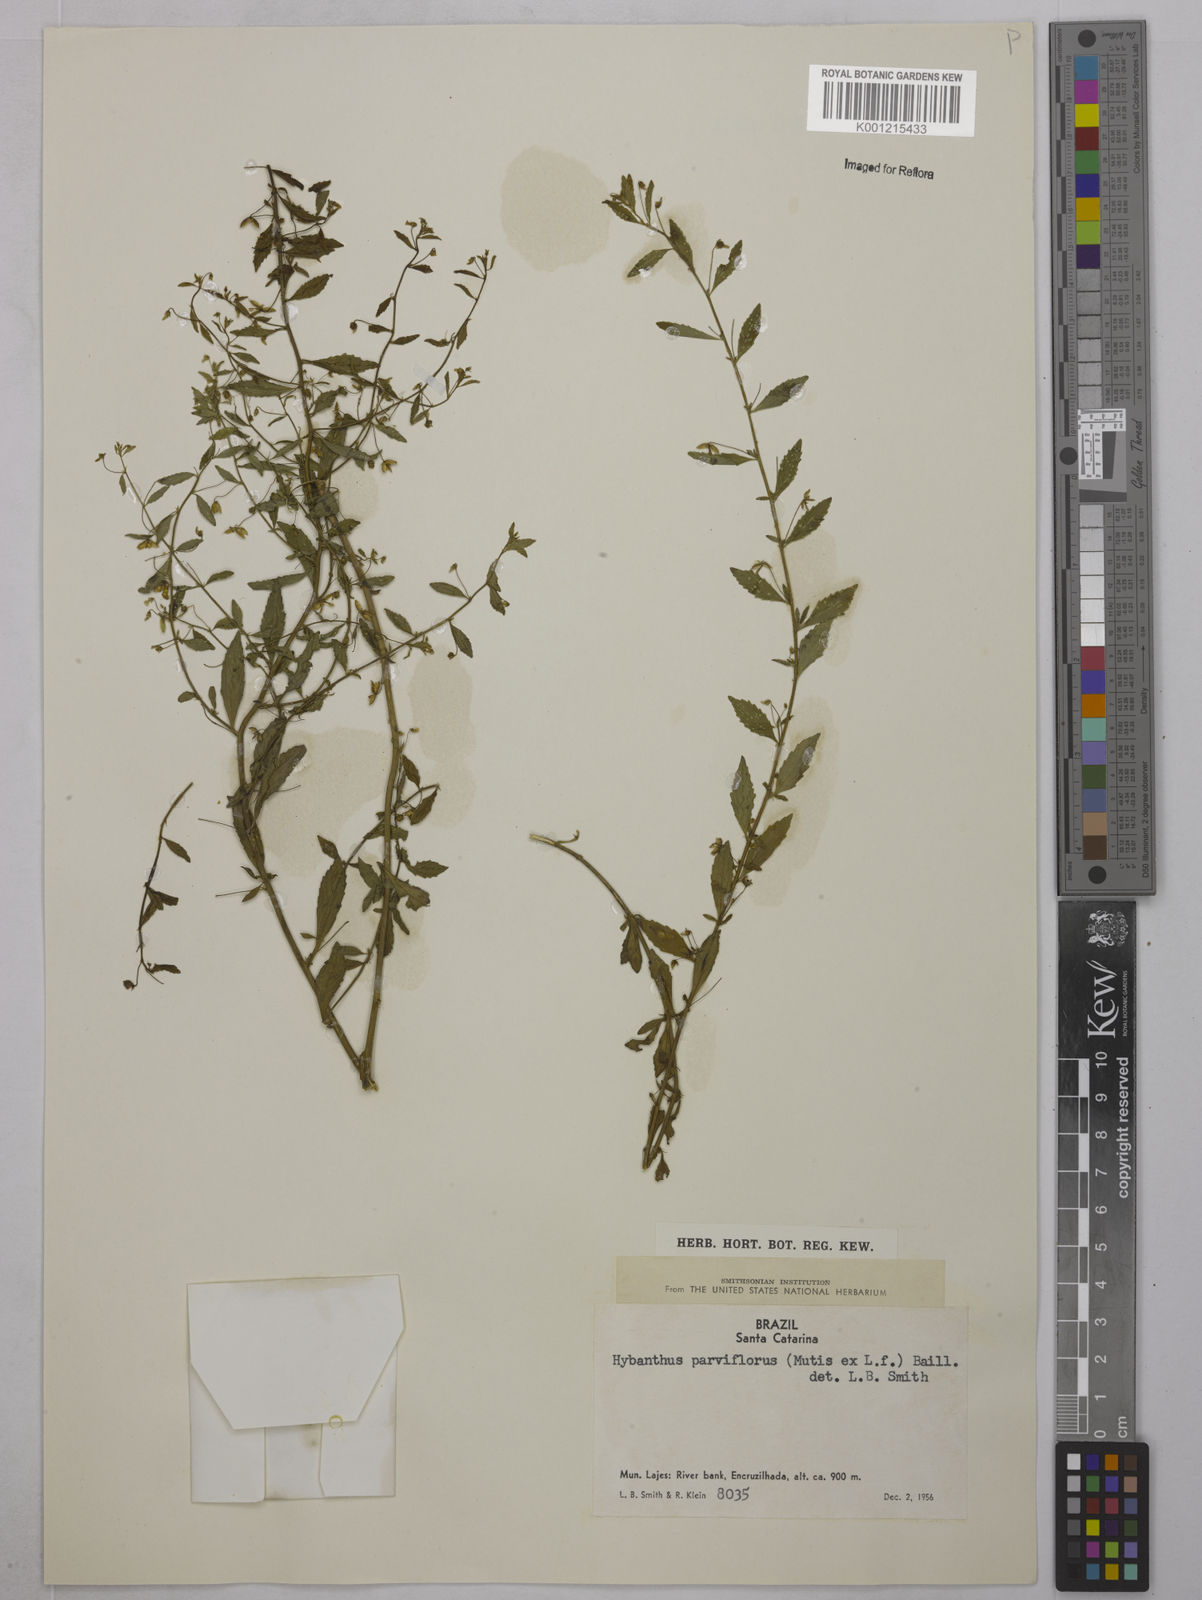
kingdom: Plantae
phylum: Tracheophyta
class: Magnoliopsida
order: Malpighiales
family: Violaceae
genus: Pombalia
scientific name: Pombalia parviflora
